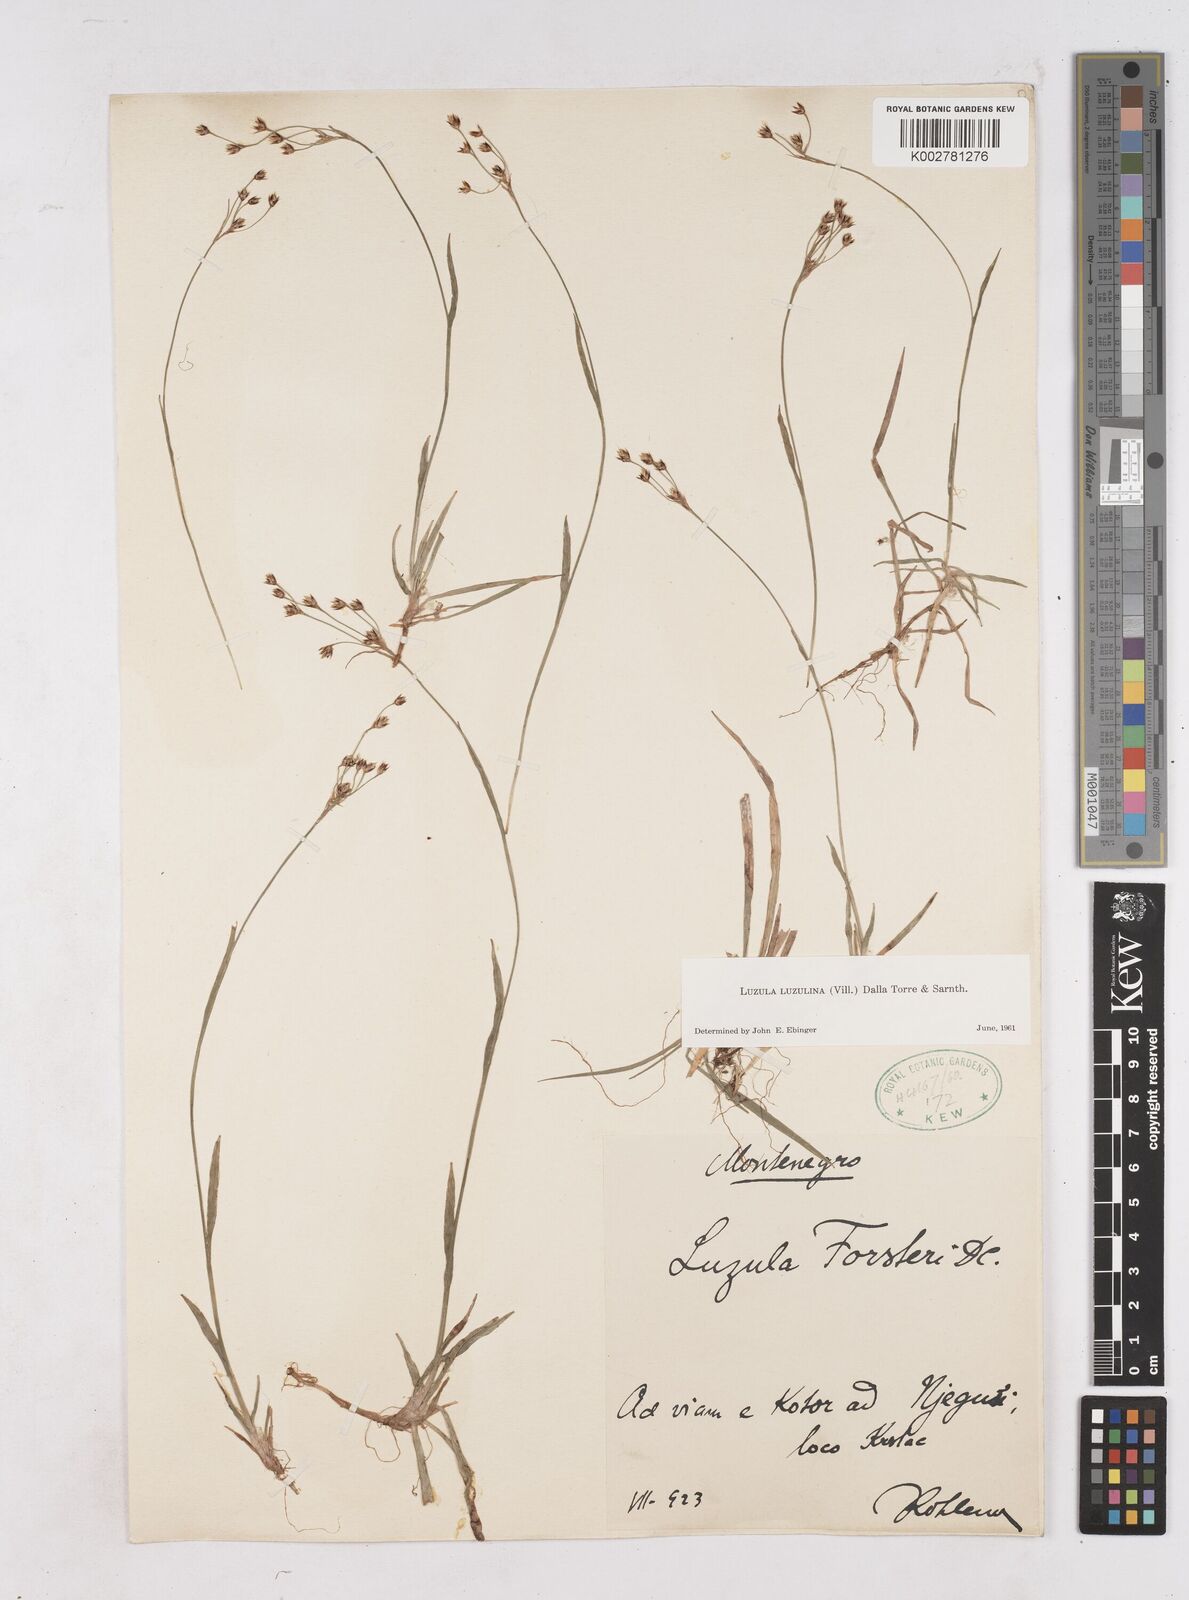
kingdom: Plantae
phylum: Tracheophyta
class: Liliopsida
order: Poales
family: Juncaceae
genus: Luzula
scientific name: Luzula luzulina
